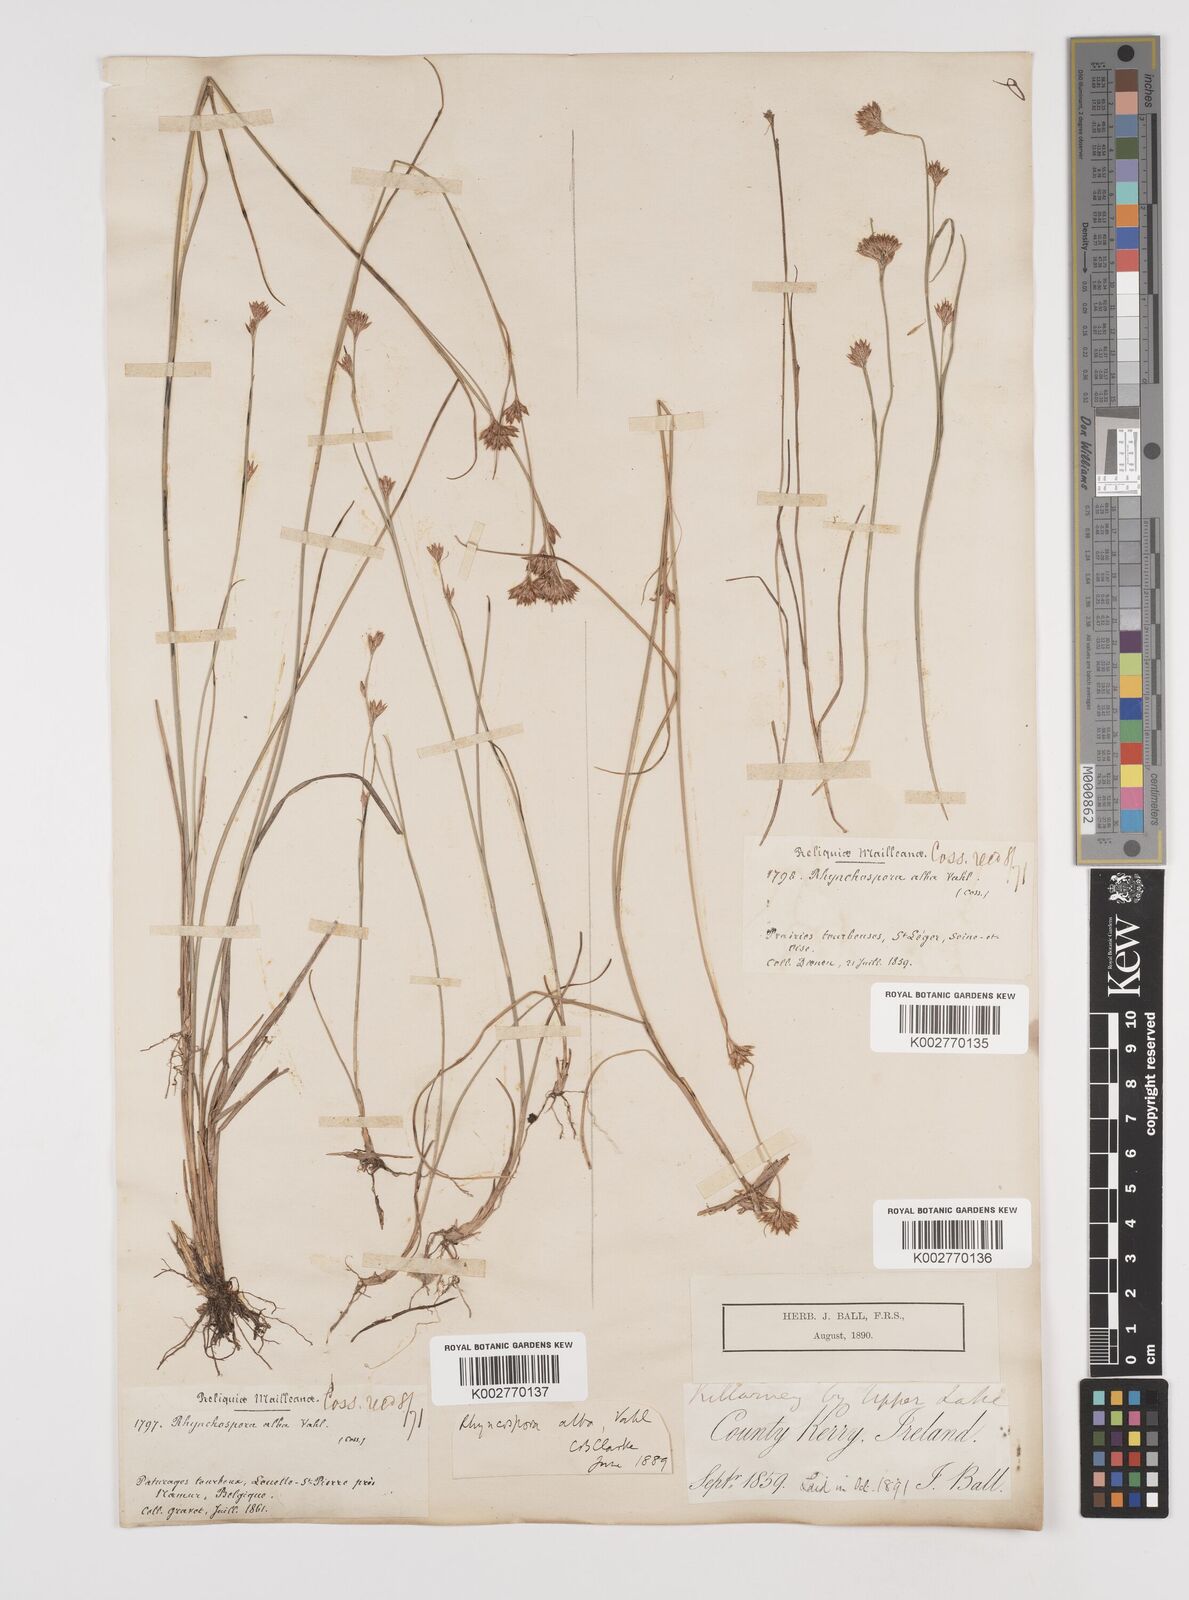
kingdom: Plantae
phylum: Tracheophyta
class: Liliopsida
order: Poales
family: Cyperaceae
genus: Rhynchospora
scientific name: Rhynchospora alba
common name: White beak-sedge
